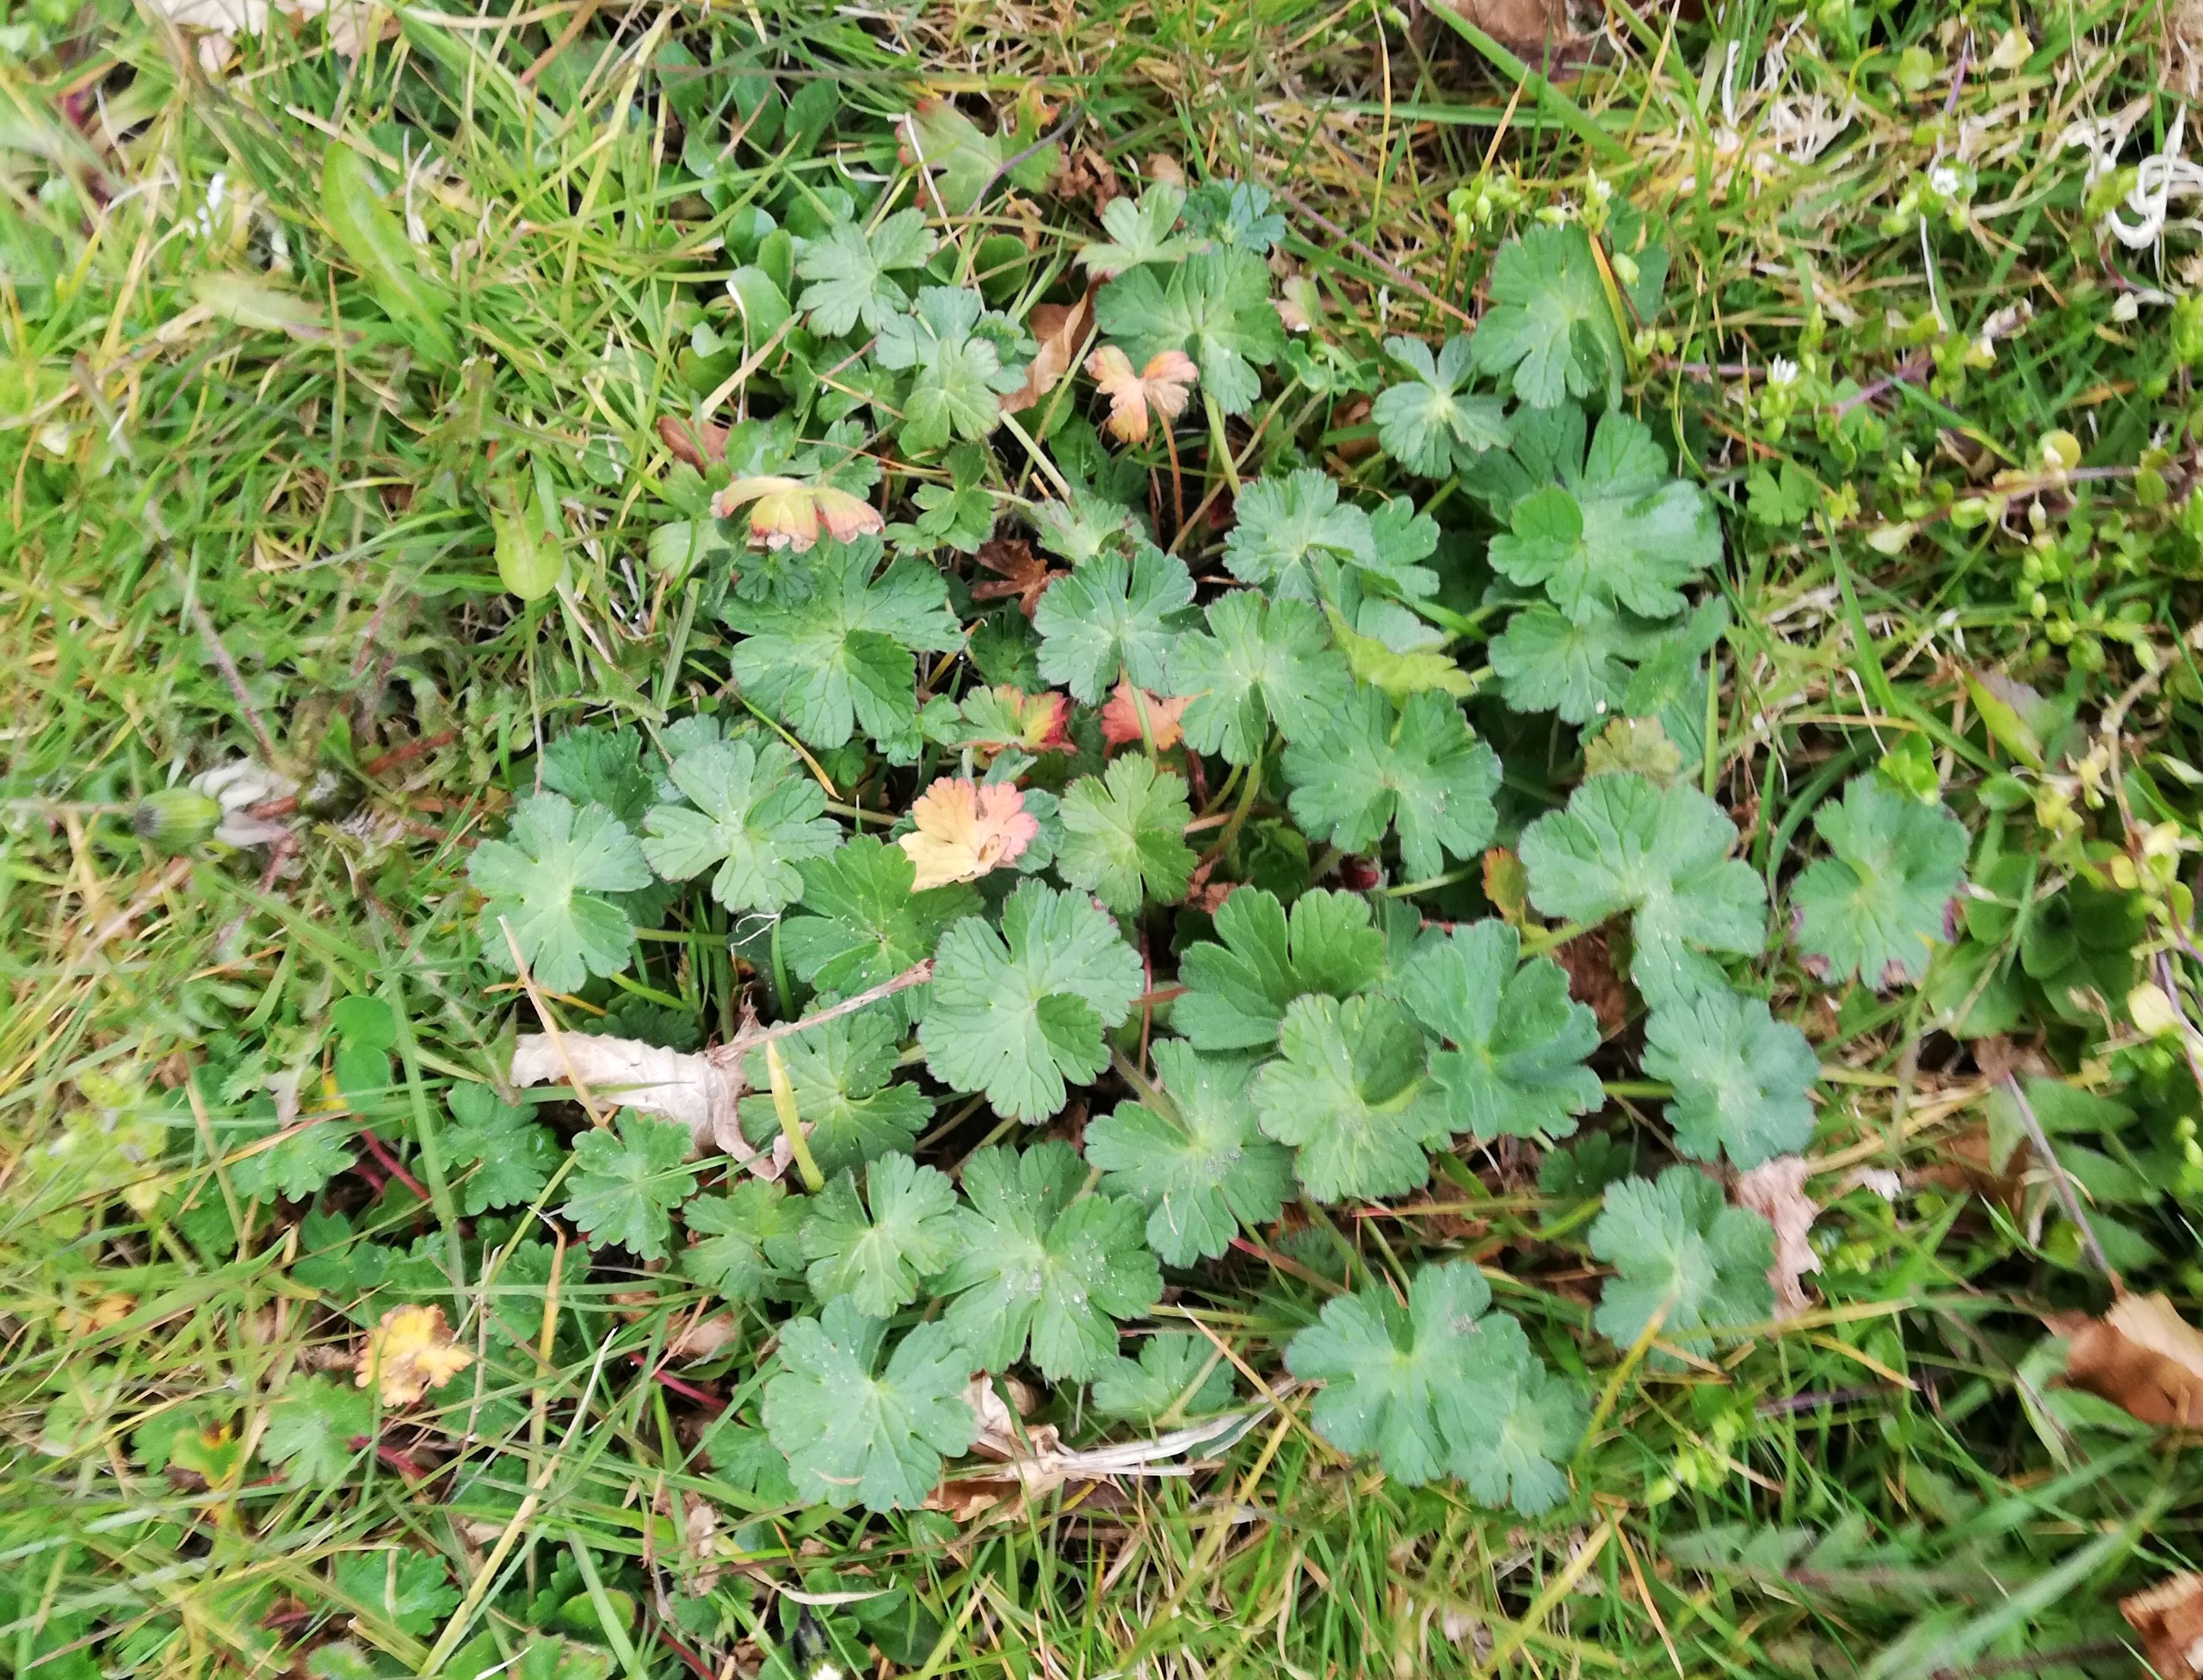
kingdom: Plantae
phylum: Tracheophyta
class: Magnoliopsida
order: Geraniales
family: Geraniaceae
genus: Geranium
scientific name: Geranium pyrenaicum
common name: Pyrenæisk storkenæb
